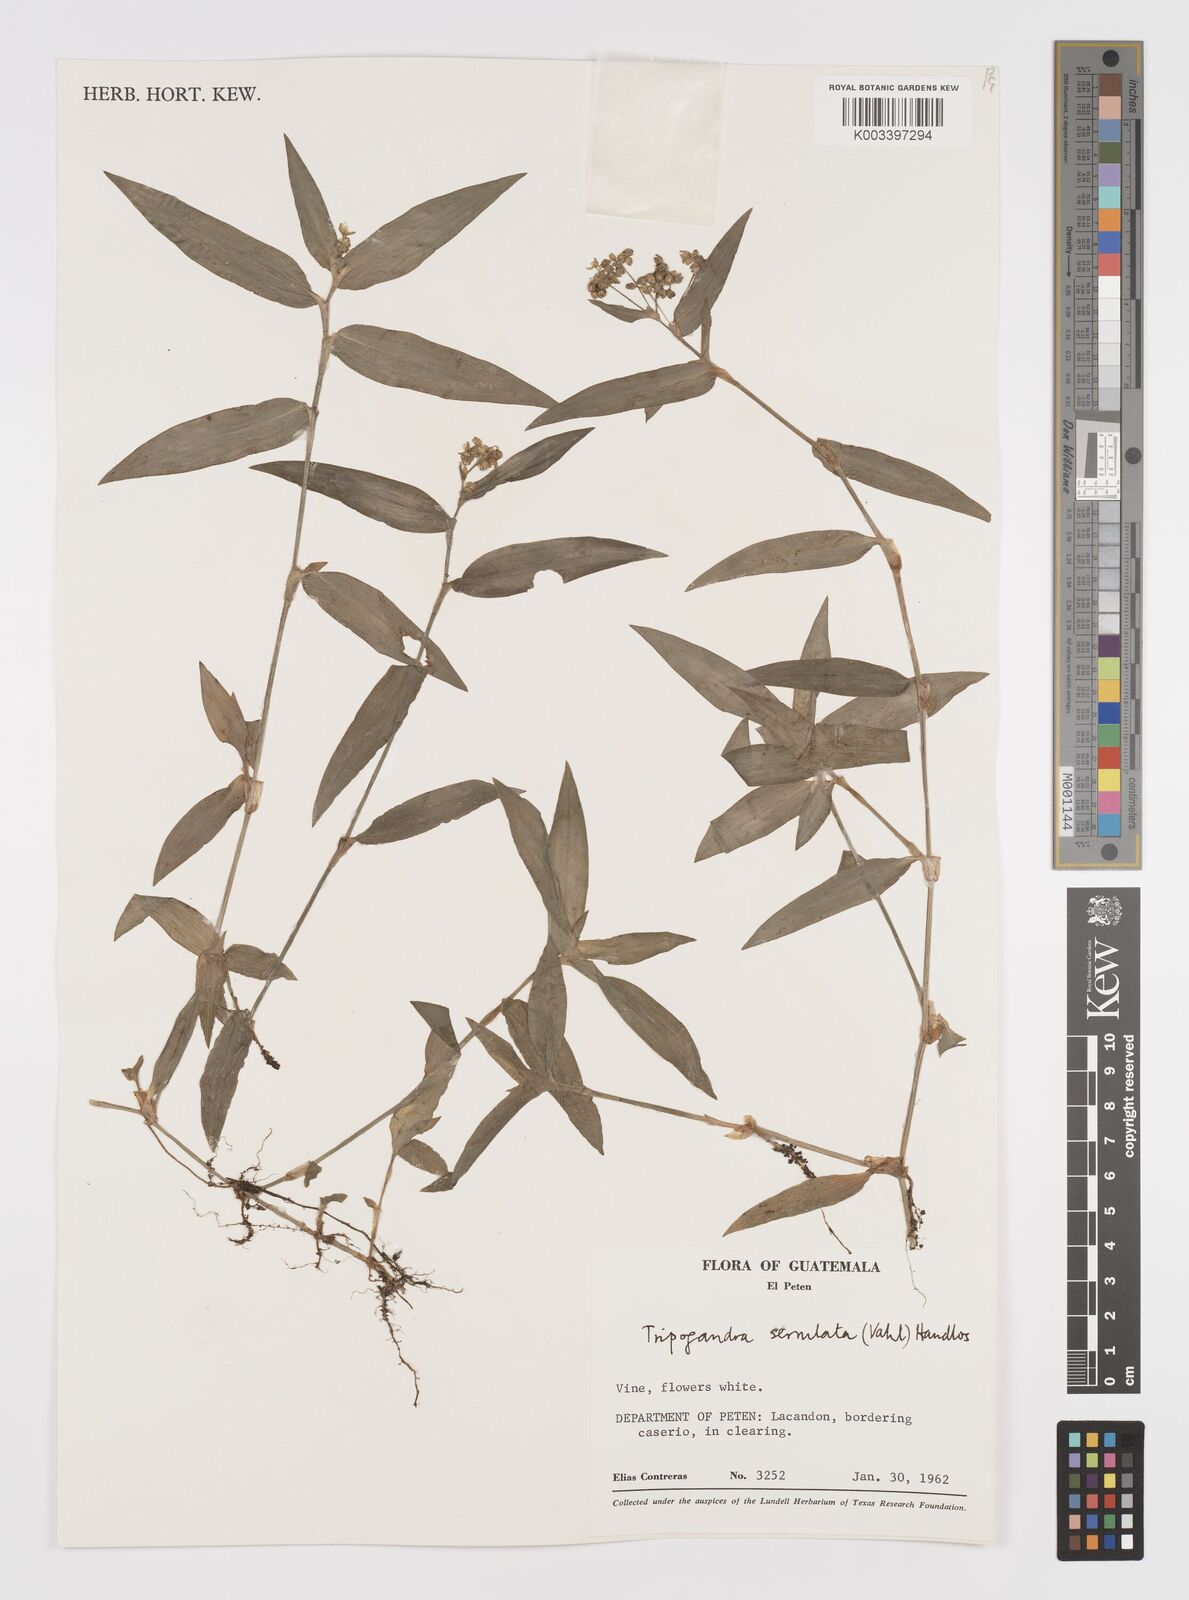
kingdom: Plantae
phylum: Tracheophyta
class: Liliopsida
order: Commelinales
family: Commelinaceae
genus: Callisia
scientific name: Callisia serrulata
